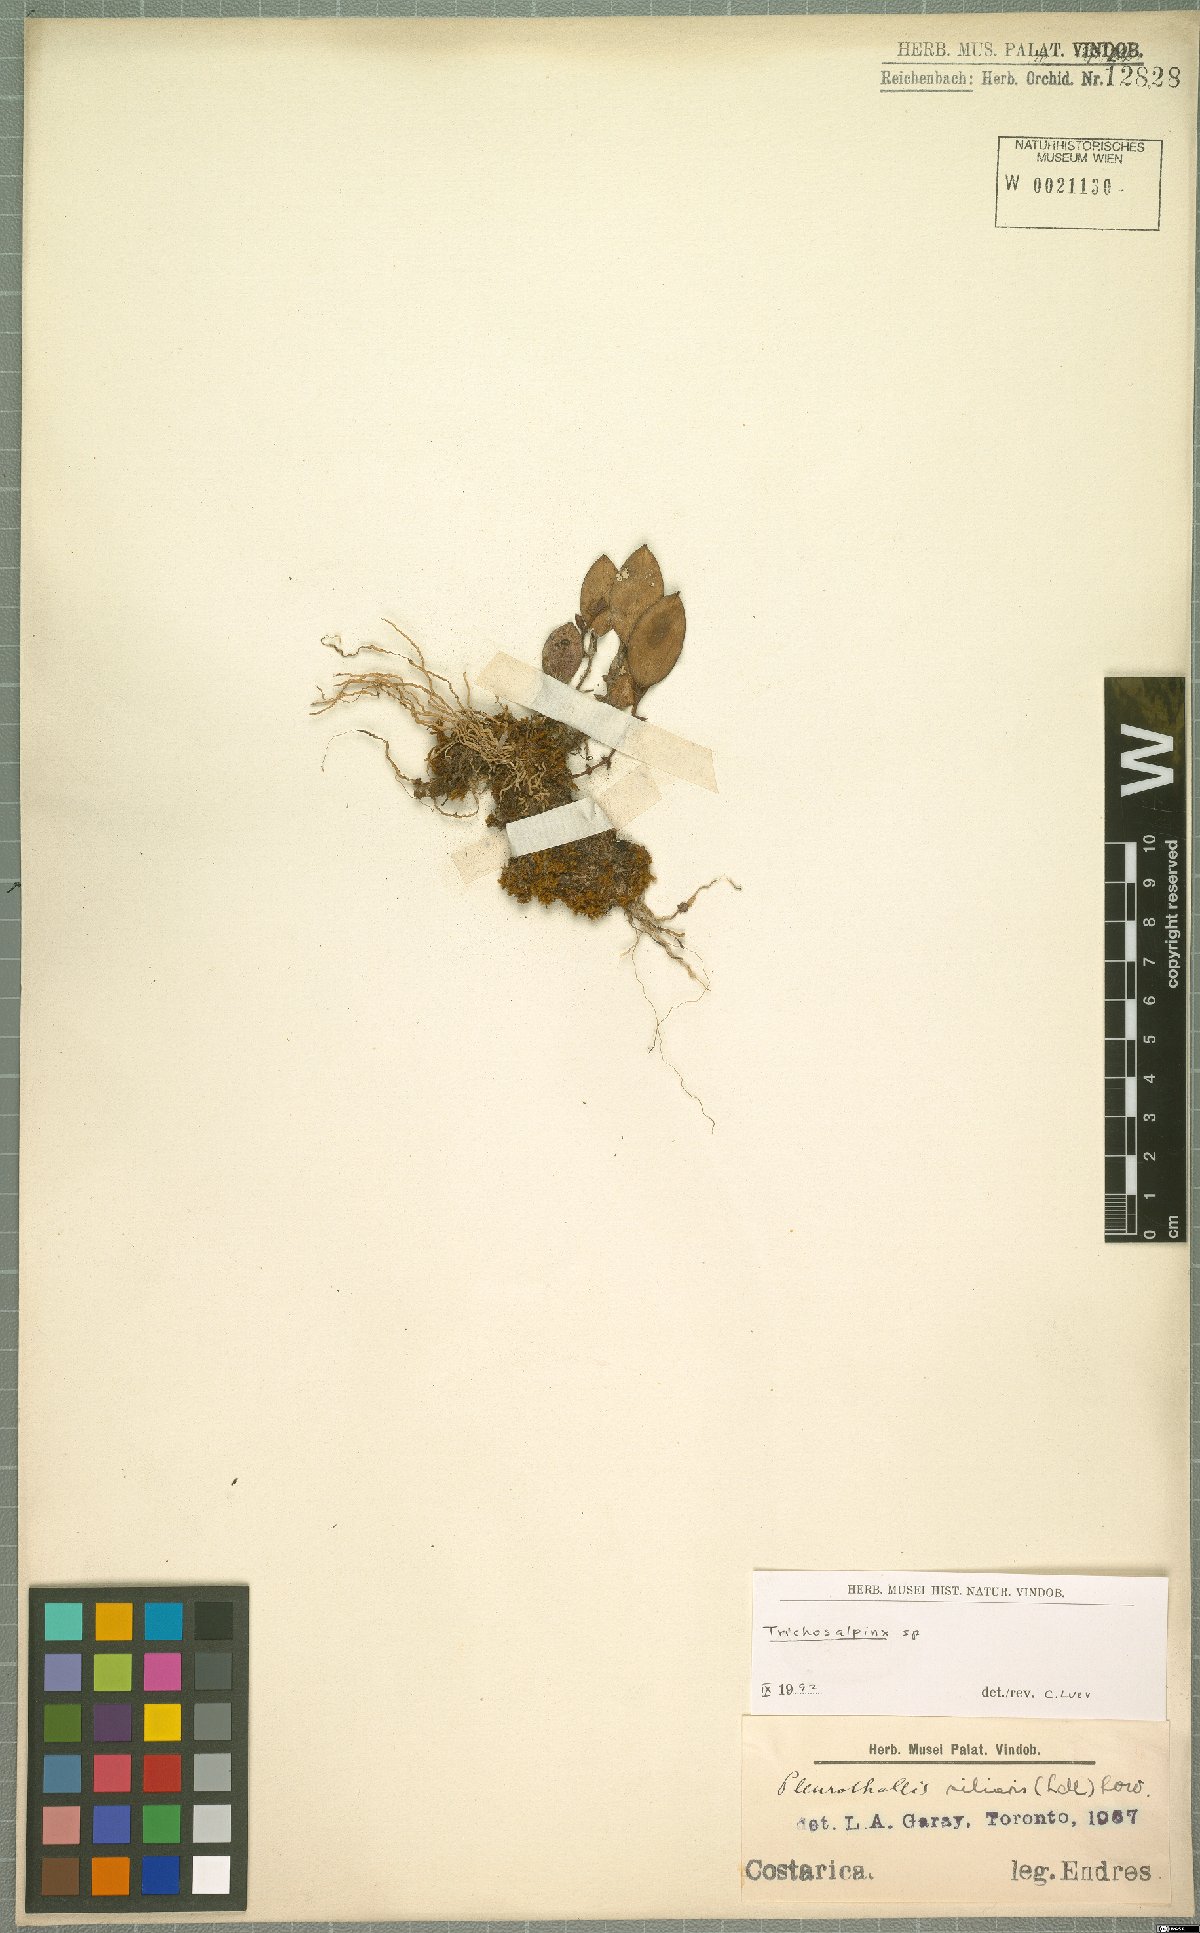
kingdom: Plantae
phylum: Tracheophyta
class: Liliopsida
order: Asparagales
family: Orchidaceae
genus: Trichosalpinx
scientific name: Trichosalpinx
